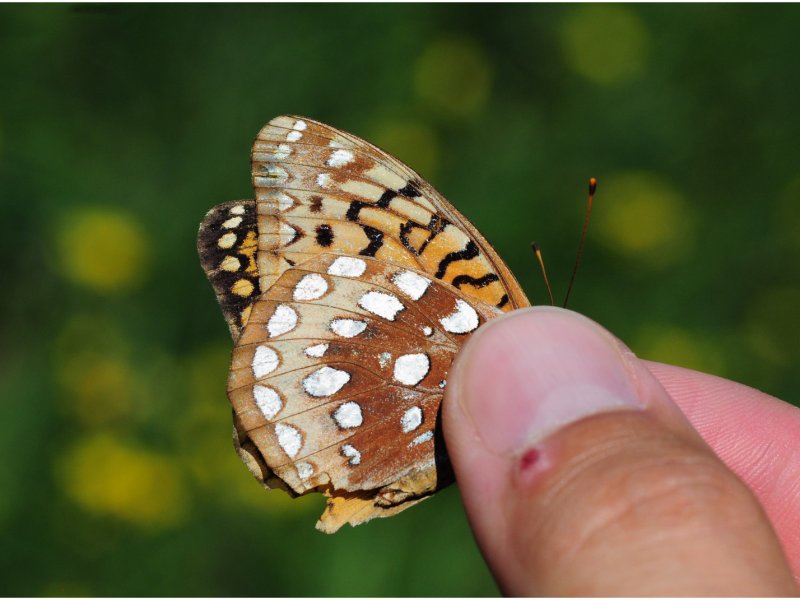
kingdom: Animalia
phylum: Arthropoda
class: Insecta
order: Lepidoptera
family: Nymphalidae
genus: Speyeria
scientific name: Speyeria cybele
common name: Great Spangled Fritillary
